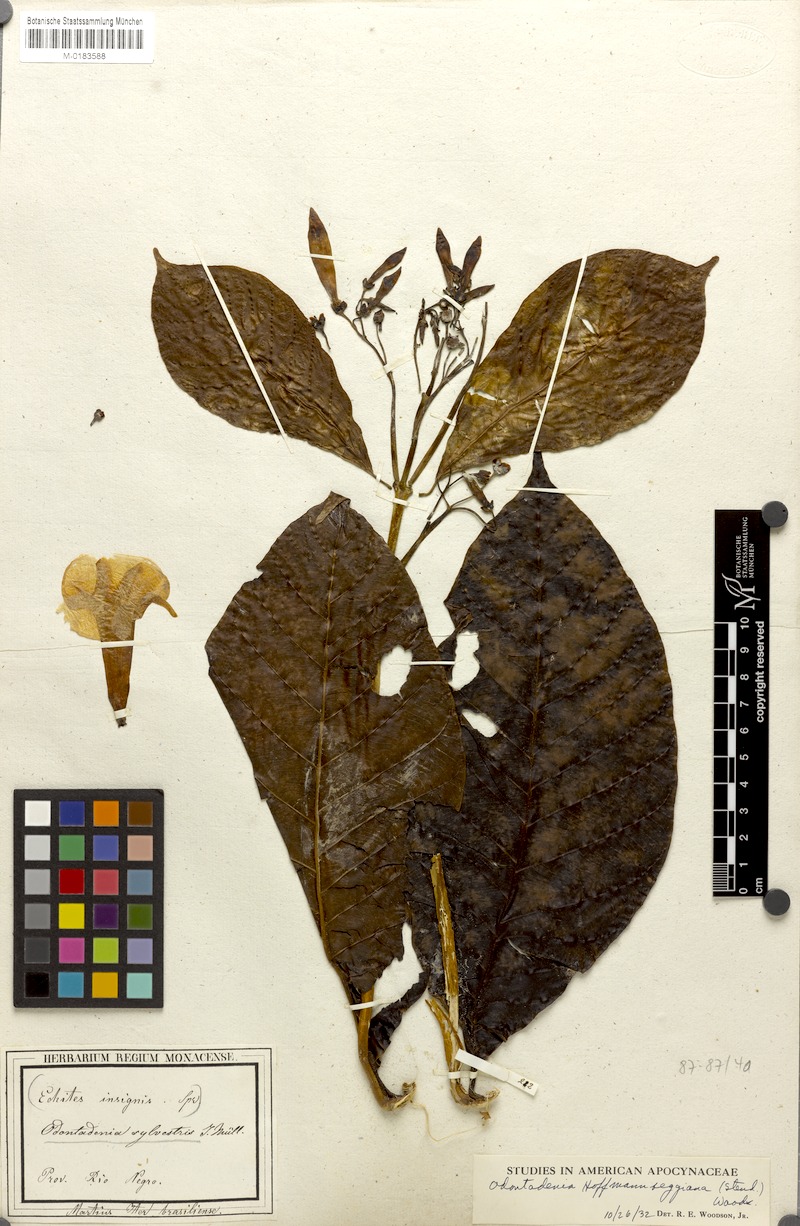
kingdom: Plantae
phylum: Tracheophyta
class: Magnoliopsida
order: Gentianales
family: Apocynaceae
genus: Odontadenia
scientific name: Odontadenia semidigyna
